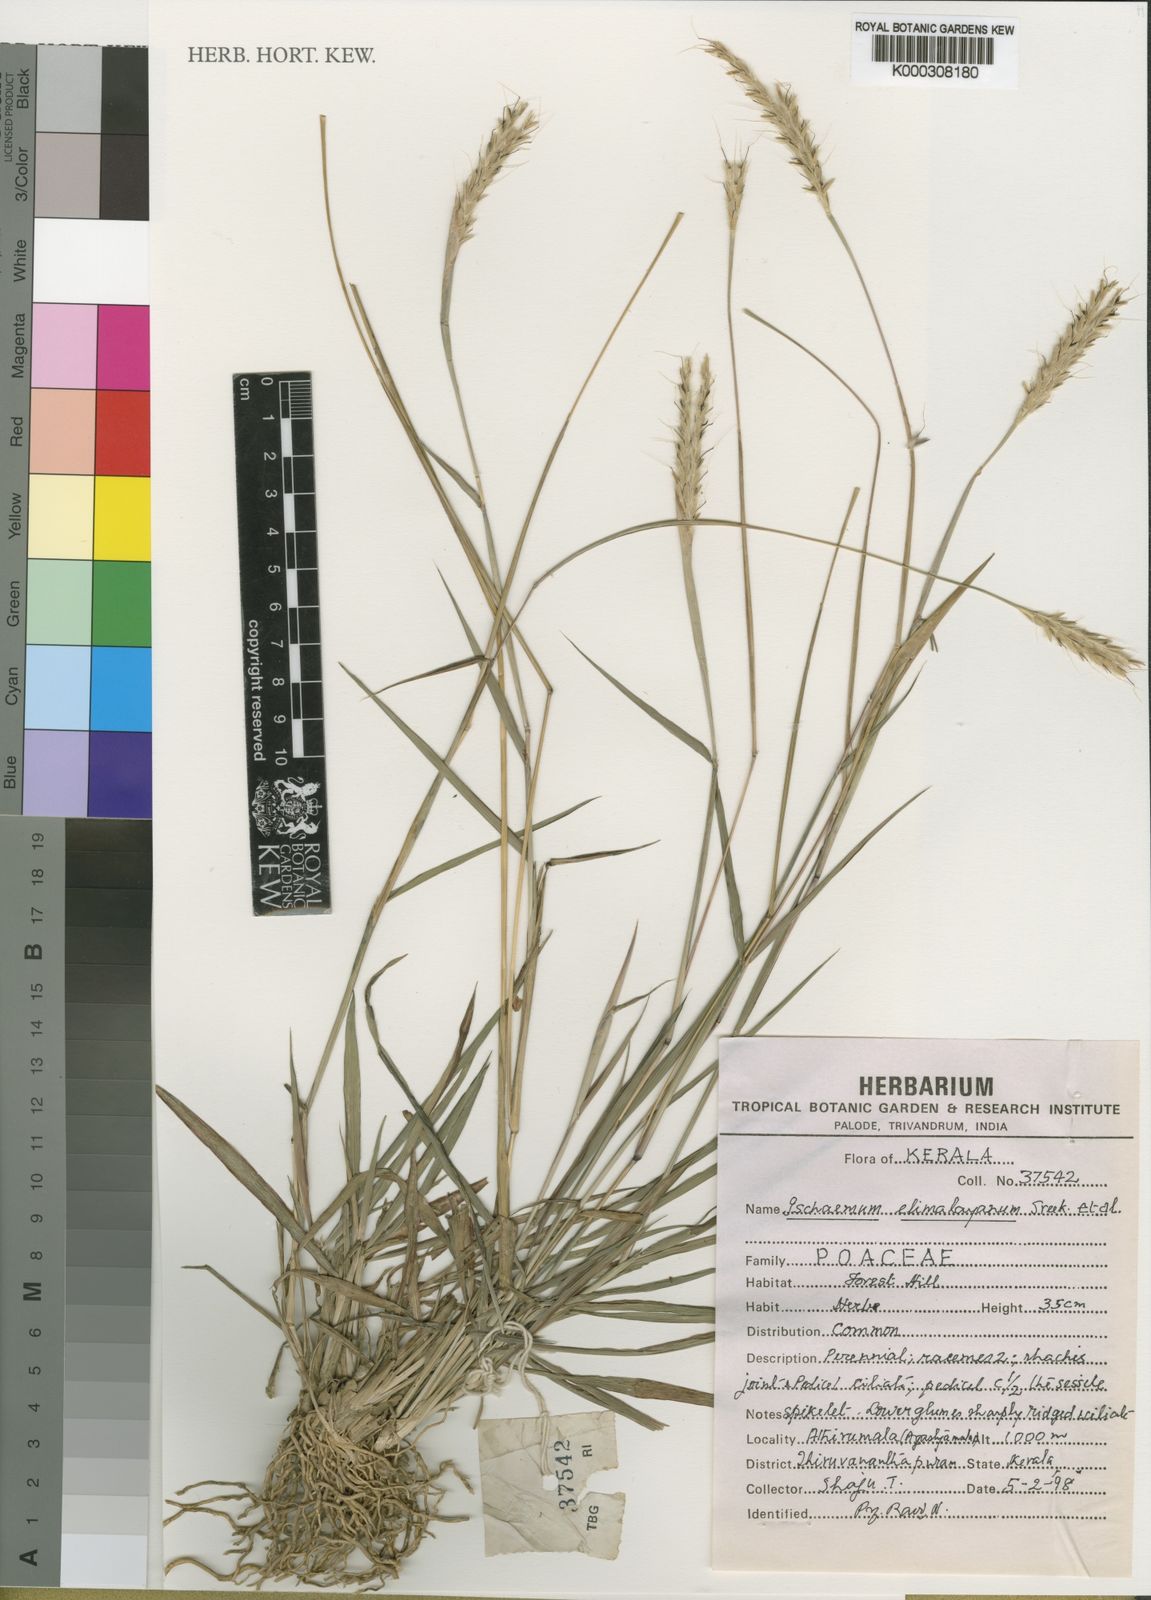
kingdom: Plantae
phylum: Tracheophyta
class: Liliopsida
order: Poales
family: Poaceae
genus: Ischaemum
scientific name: Ischaemum elimalayanum
